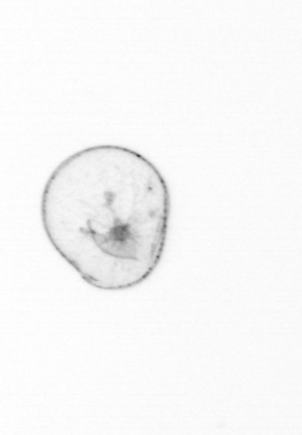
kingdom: Chromista
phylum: Myzozoa
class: Dinophyceae
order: Noctilucales
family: Noctilucaceae
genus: Noctiluca
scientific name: Noctiluca scintillans
